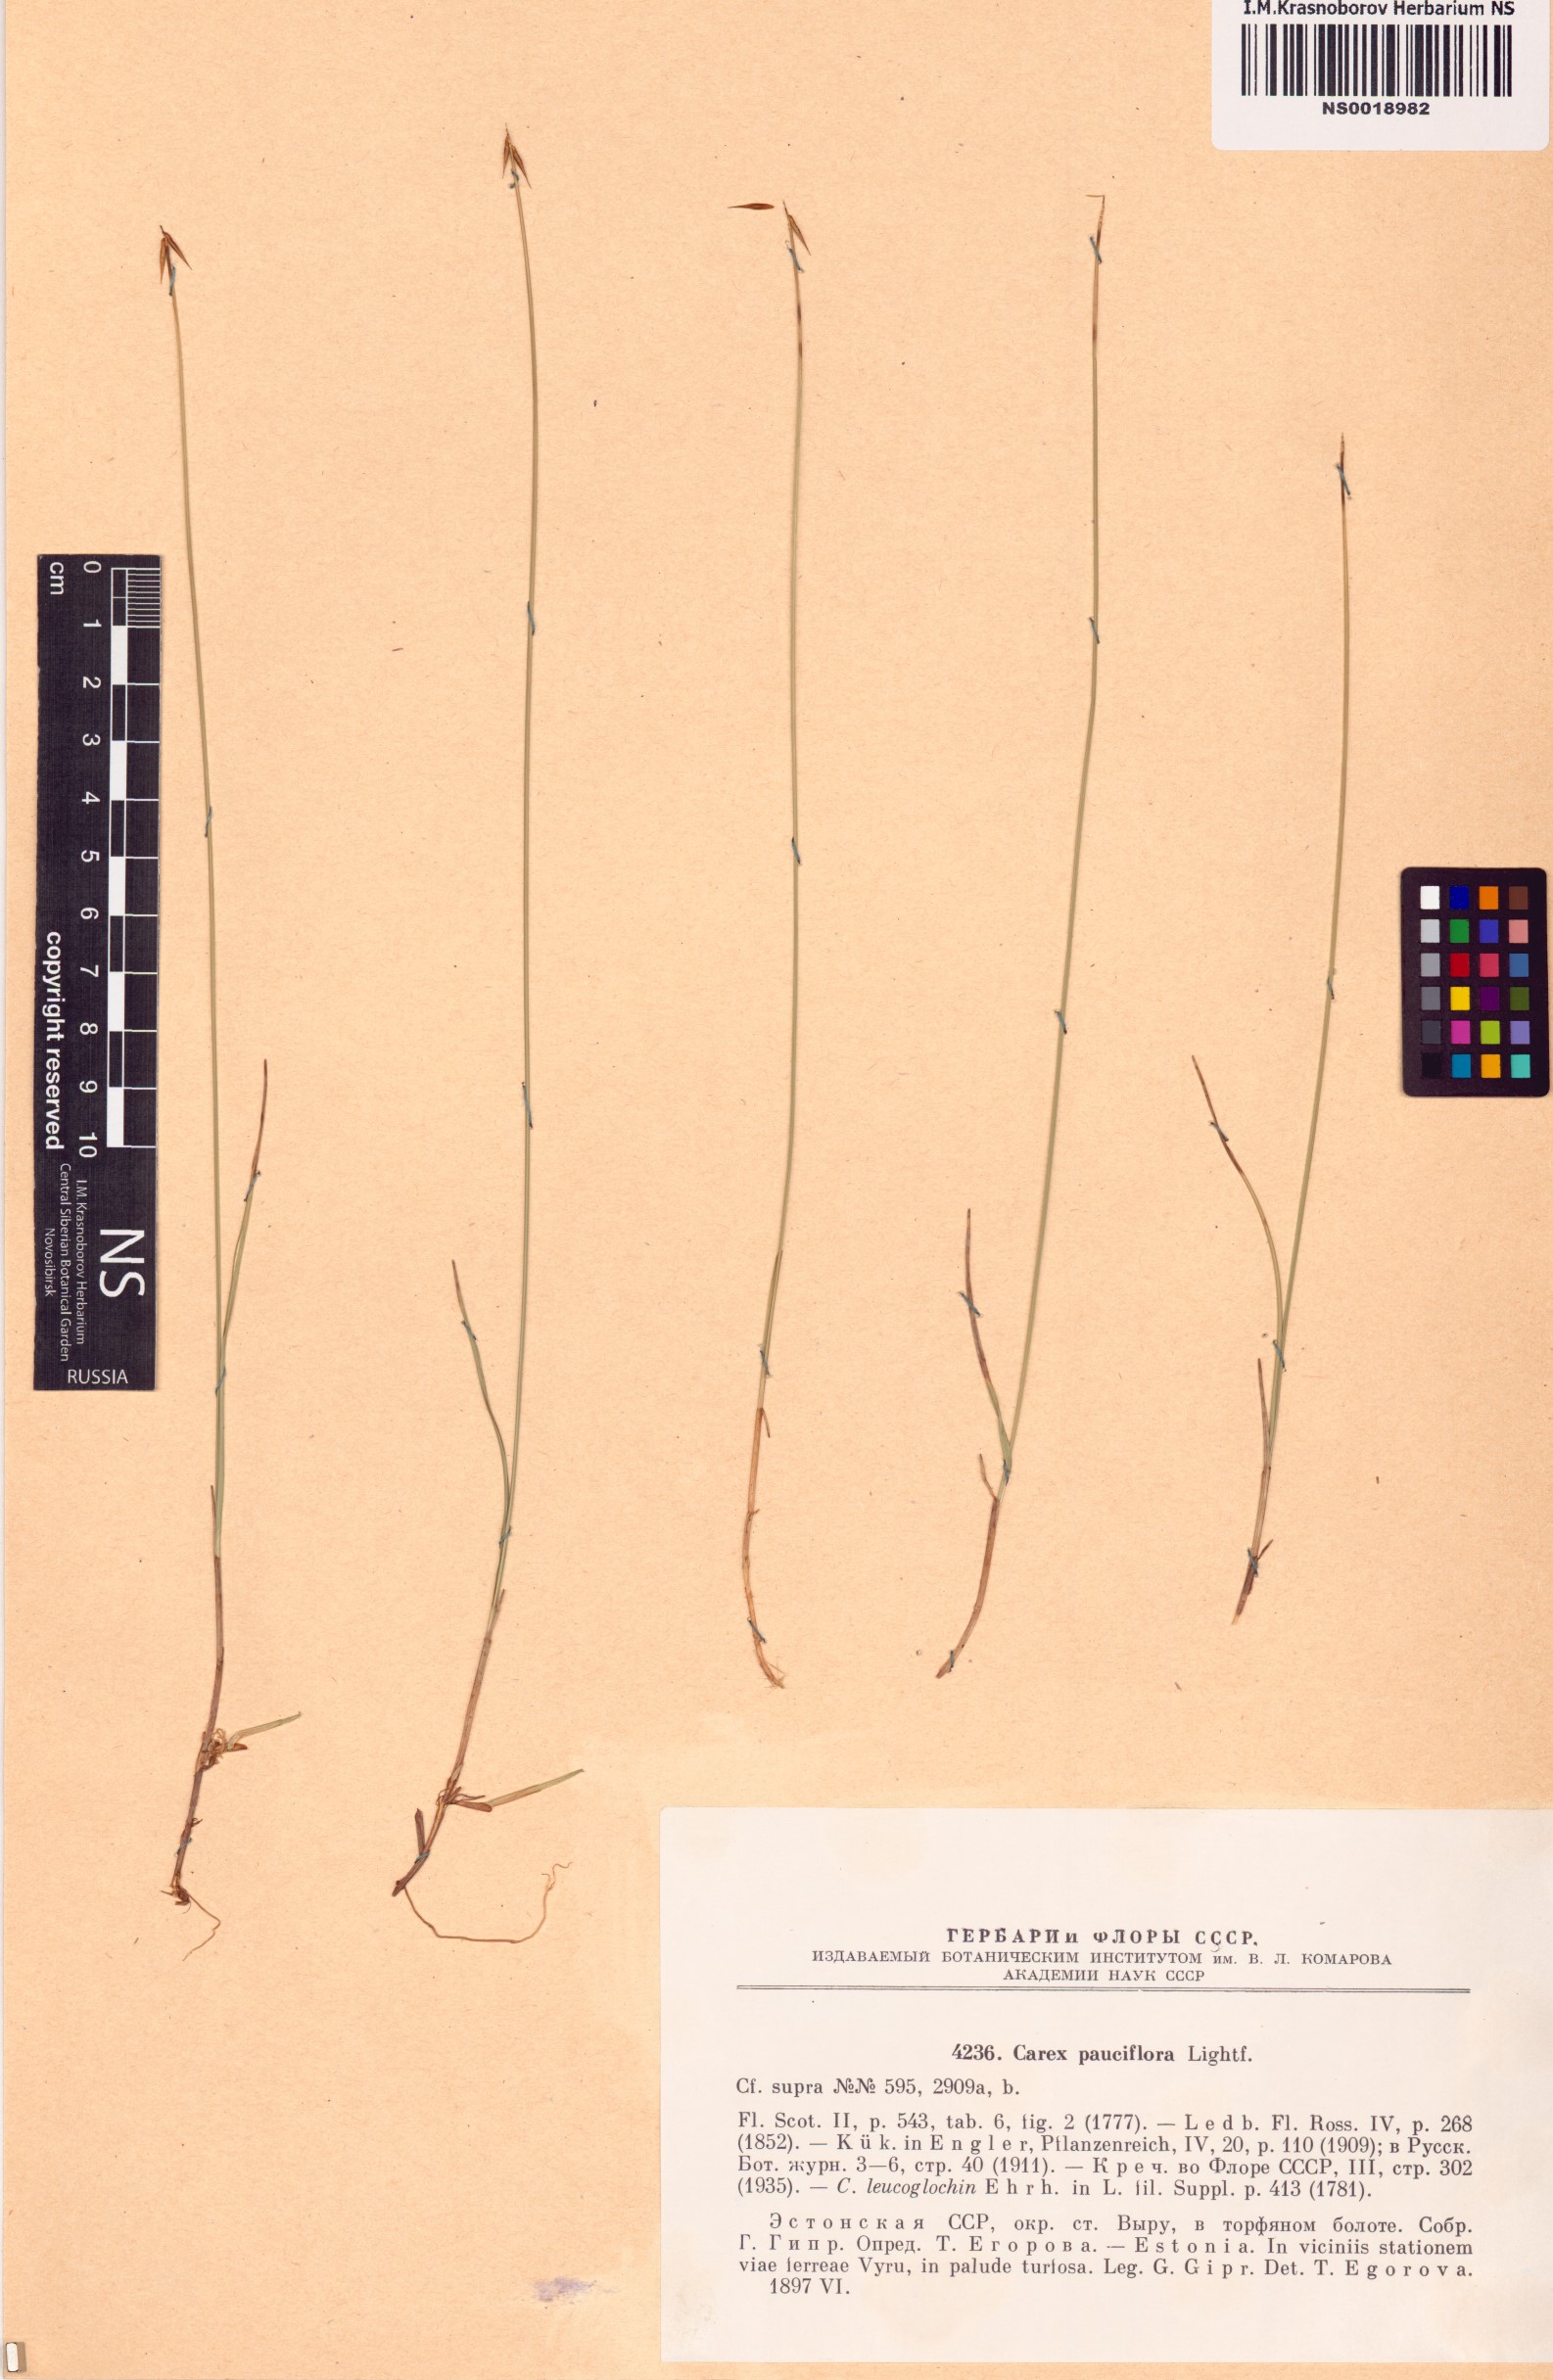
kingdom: Plantae
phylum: Tracheophyta
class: Liliopsida
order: Poales
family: Cyperaceae
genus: Carex
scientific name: Carex pauciflora
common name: Few-flowered sedge
